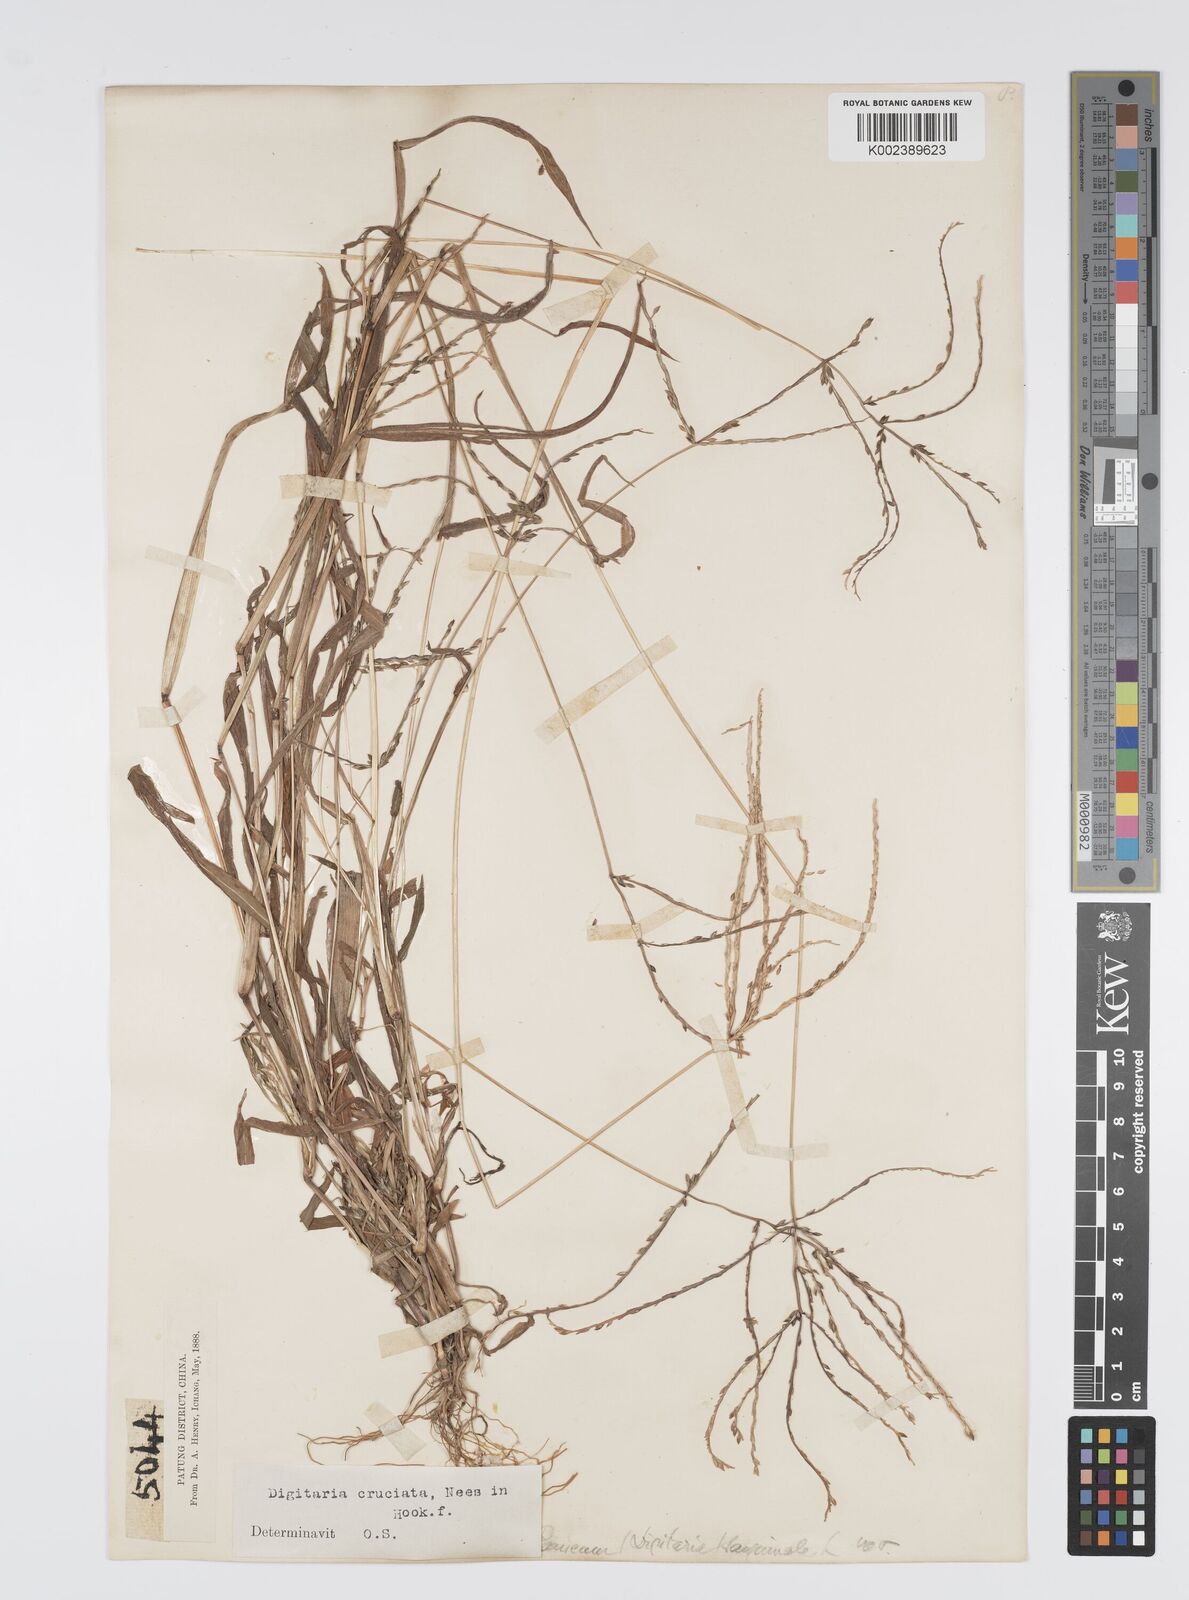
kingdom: Plantae
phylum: Tracheophyta
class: Liliopsida
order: Poales
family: Poaceae
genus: Digitaria
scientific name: Digitaria cruciata
